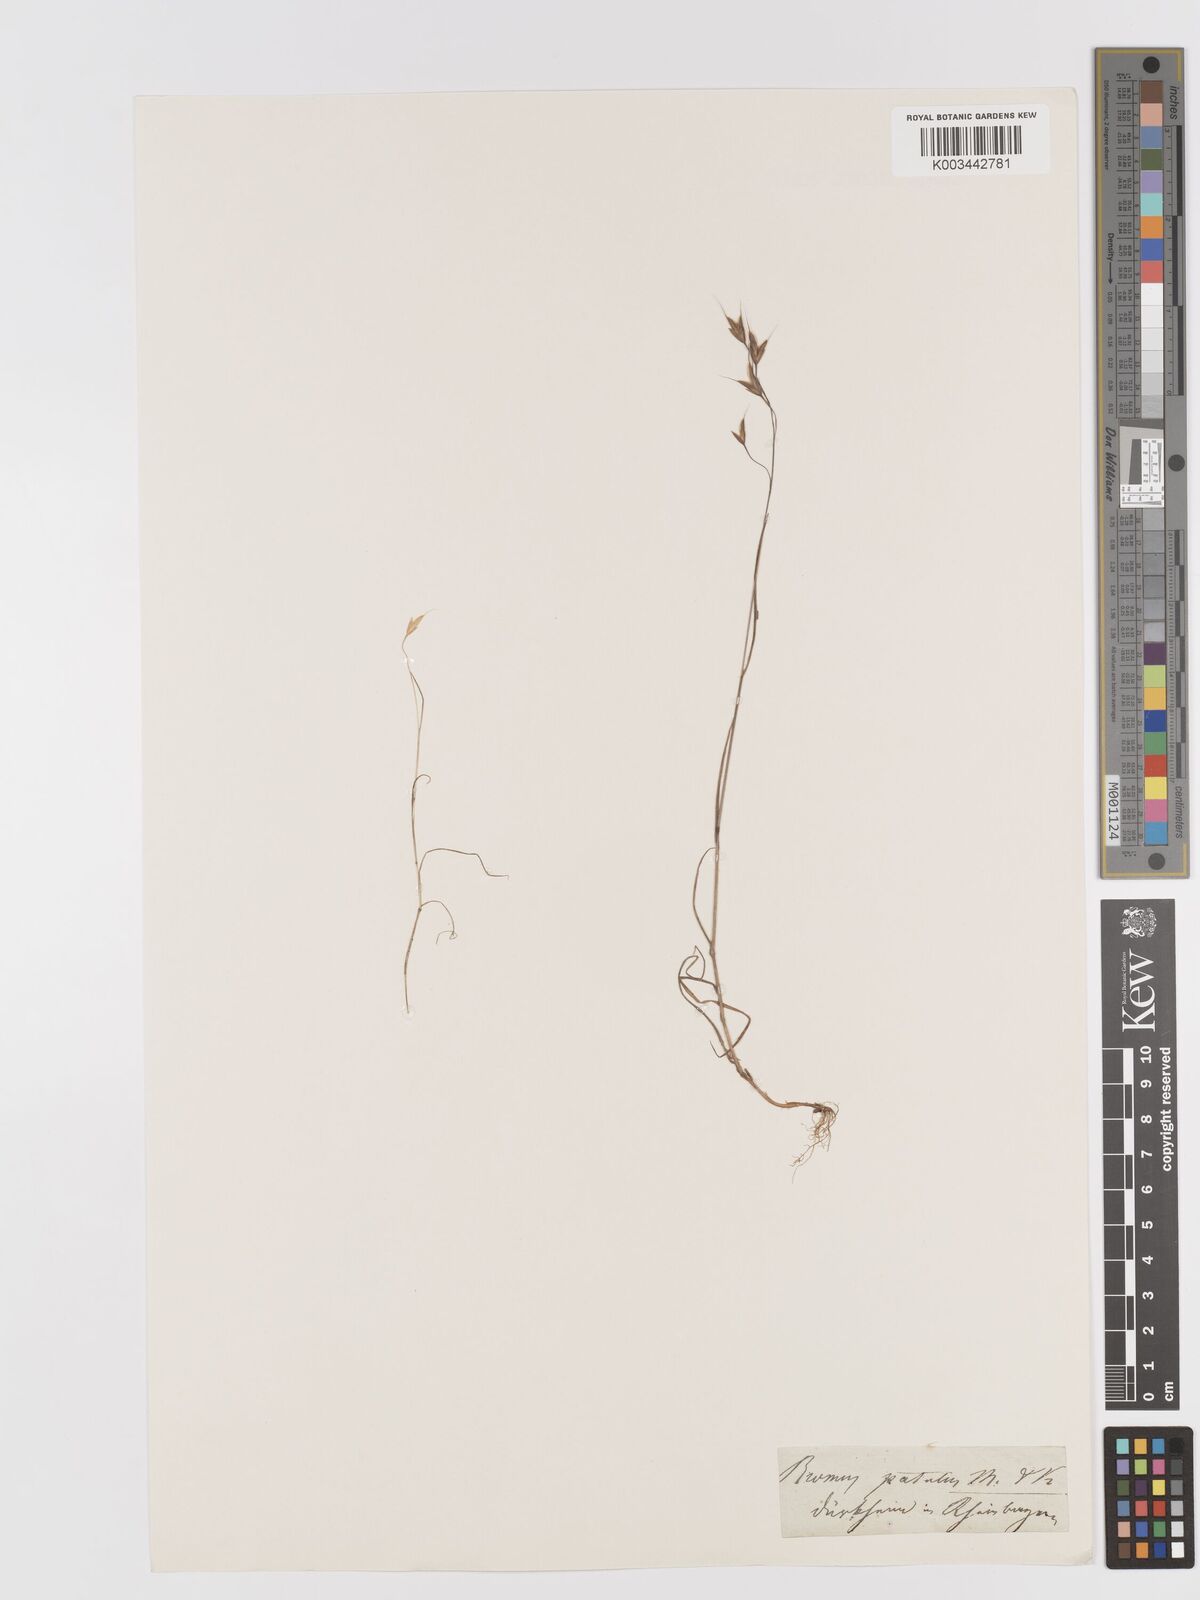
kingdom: Plantae
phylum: Tracheophyta
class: Liliopsida
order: Poales
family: Poaceae
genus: Bromus
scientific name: Bromus japonicus
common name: Japanese brome
